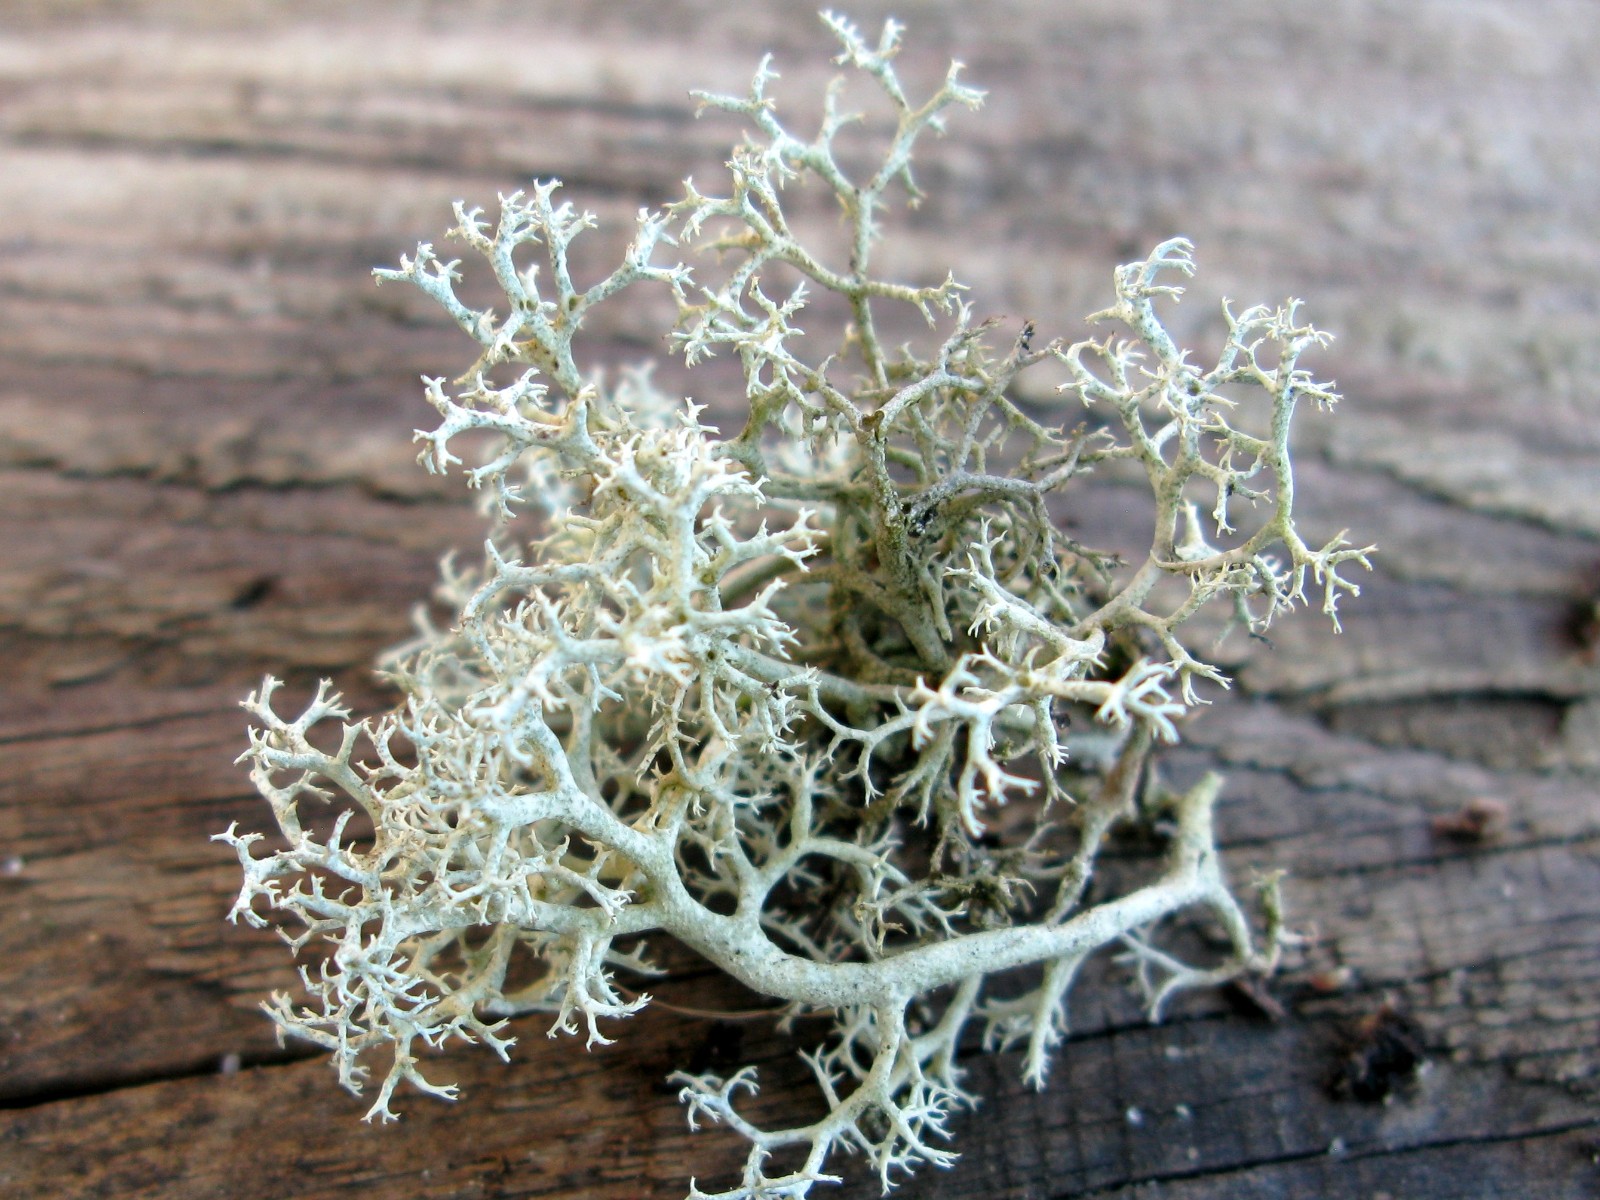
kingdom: Fungi
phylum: Ascomycota
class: Lecanoromycetes
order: Lecanorales
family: Cladoniaceae
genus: Cladonia
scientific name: Cladonia portentosa
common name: hede-rensdyrlav
